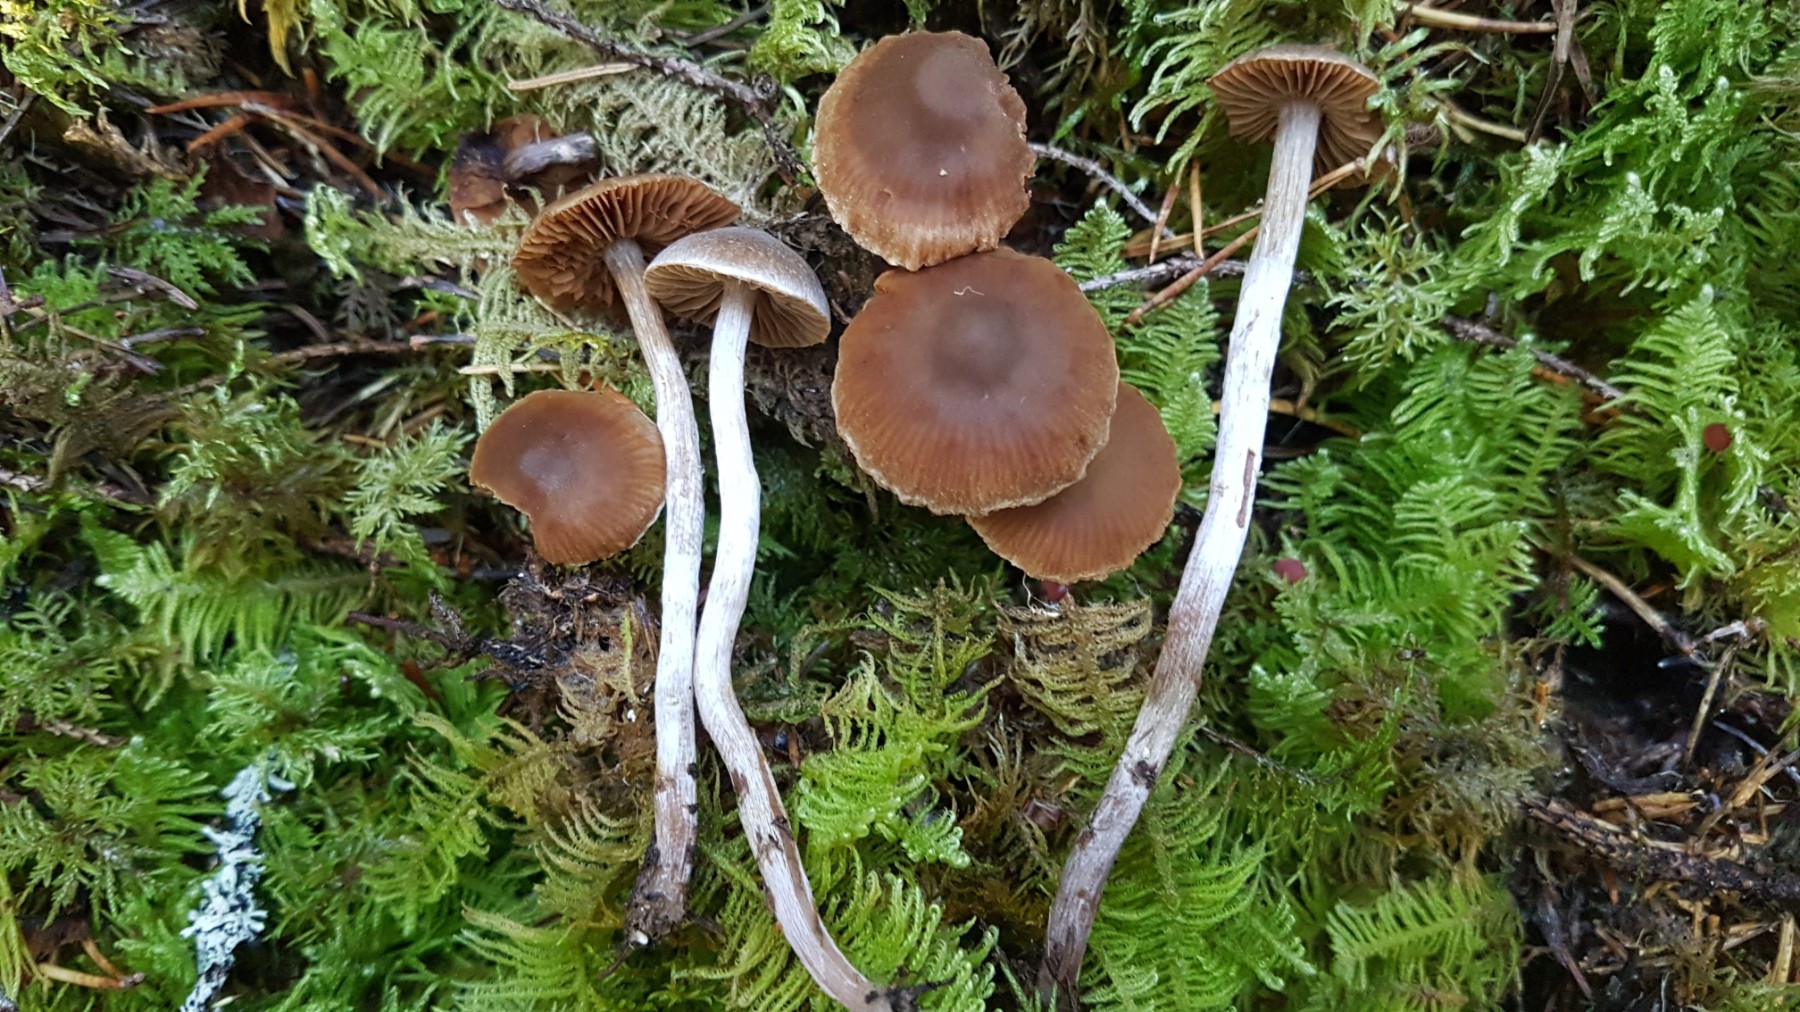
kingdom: Fungi
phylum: Basidiomycota
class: Agaricomycetes
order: Agaricales
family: Cortinariaceae
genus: Cortinarius
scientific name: Cortinarius
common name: pelargonie-slørhat
